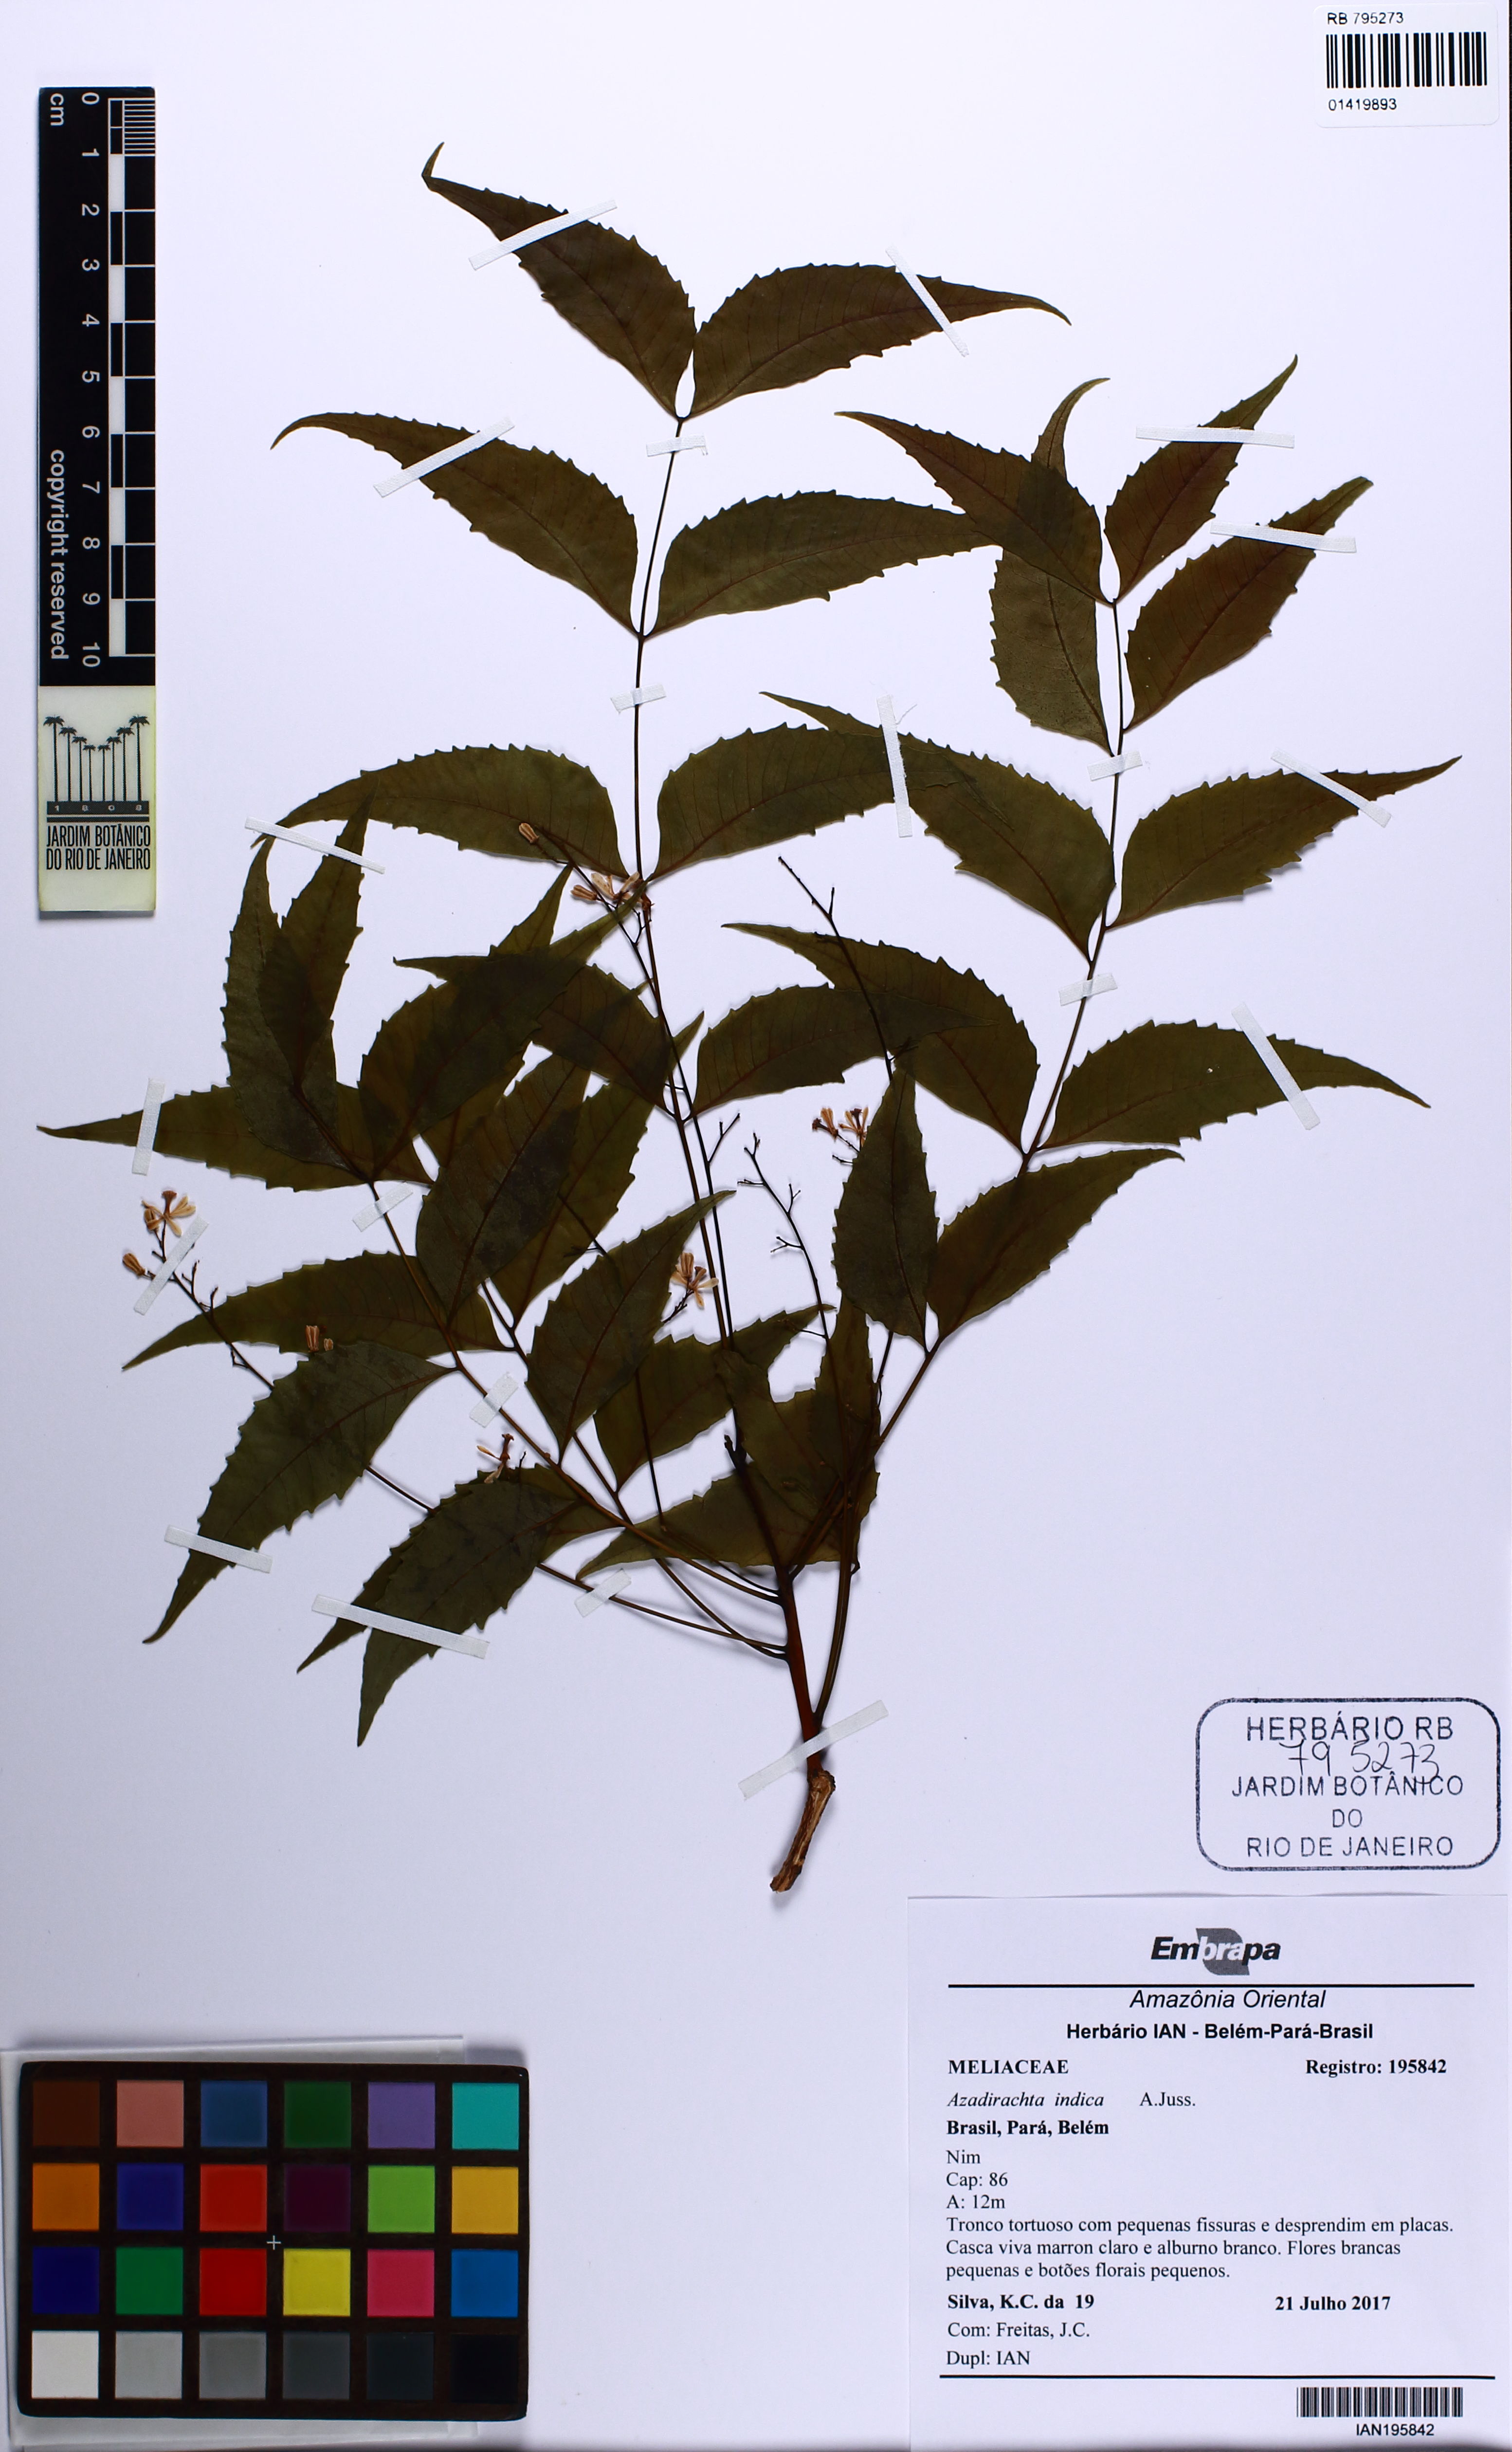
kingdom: Plantae
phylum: Tracheophyta
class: Magnoliopsida
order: Sapindales
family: Meliaceae
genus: Azadirachta
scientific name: Azadirachta indica
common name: Neem
